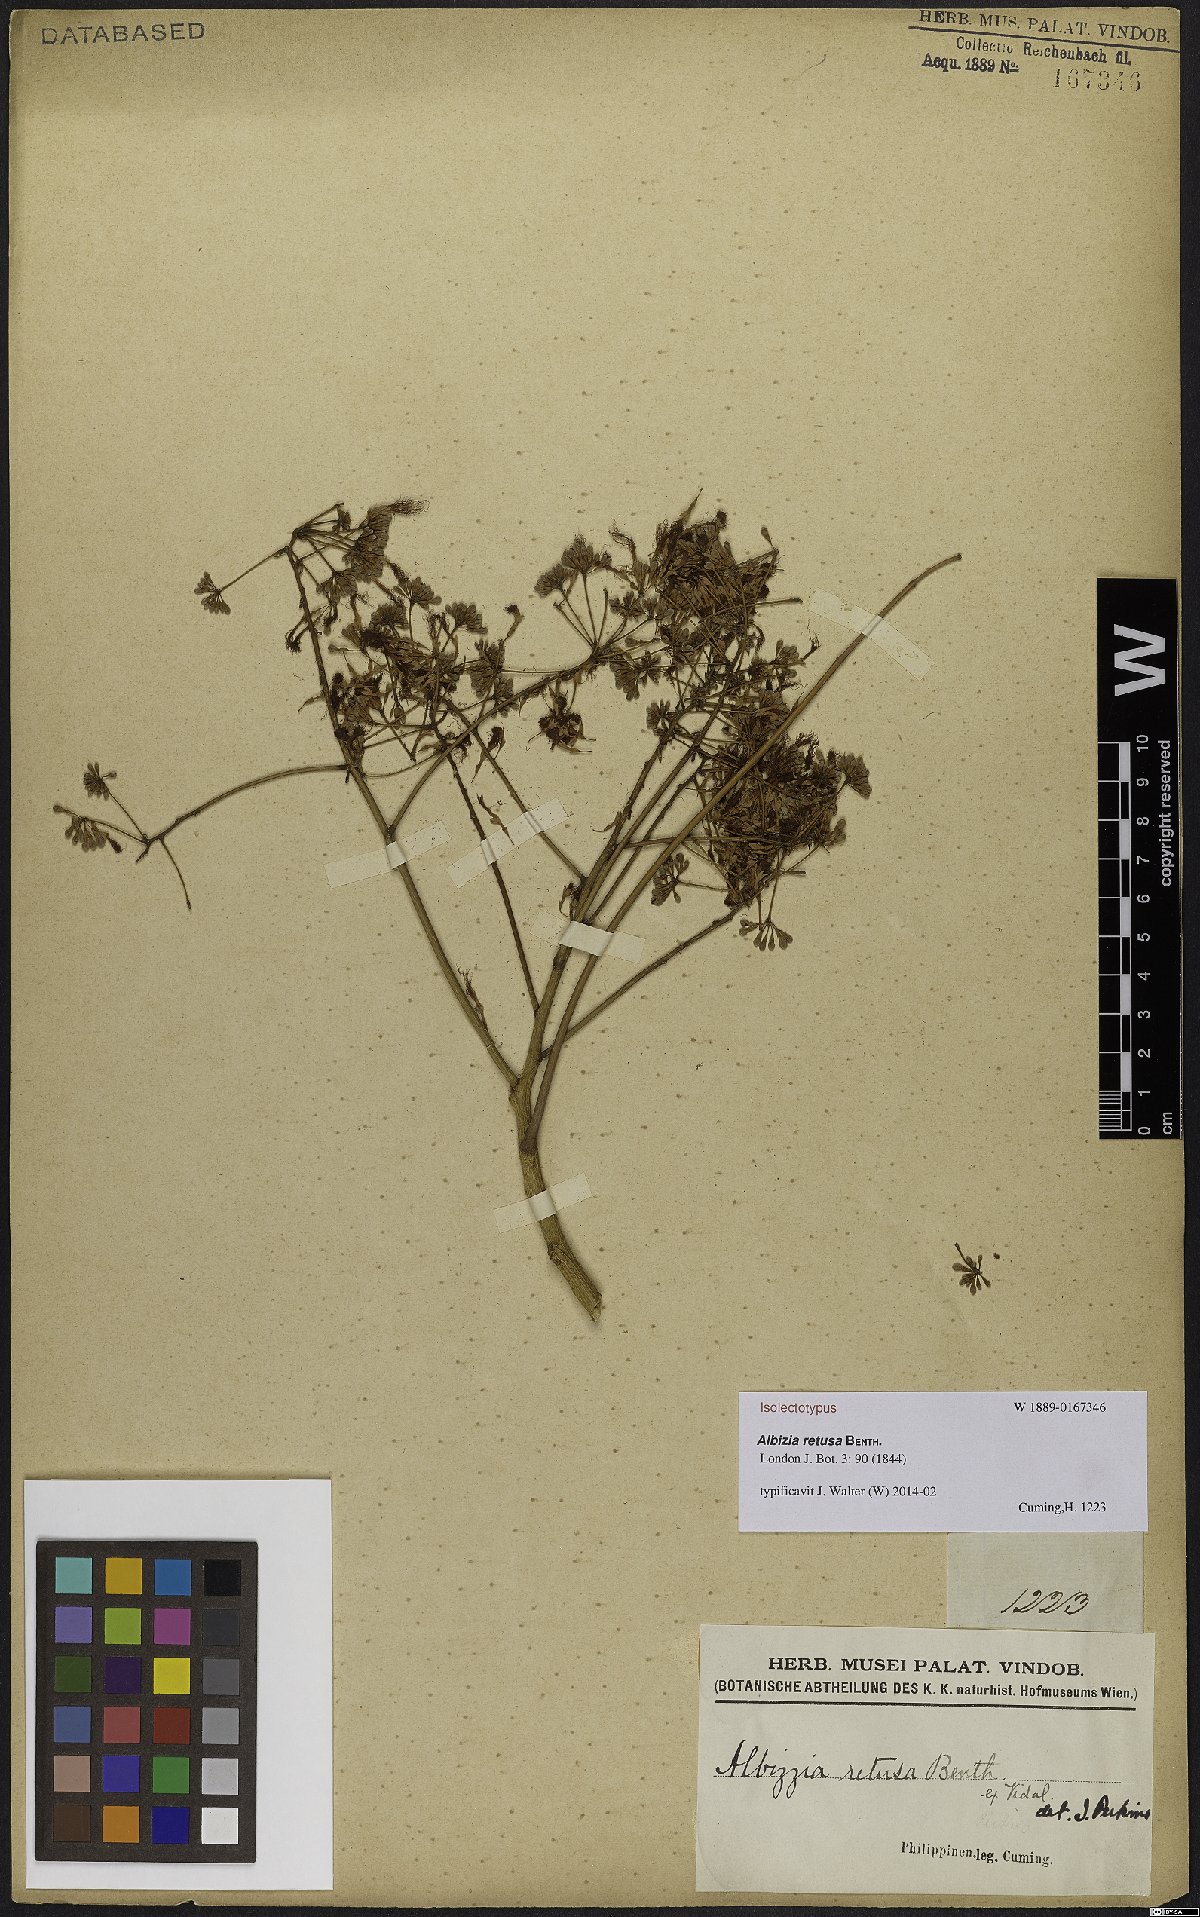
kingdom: Plantae
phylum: Tracheophyta
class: Magnoliopsida
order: Fabales
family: Fabaceae
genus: Albizia
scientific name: Albizia retusa
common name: Sea albizia
